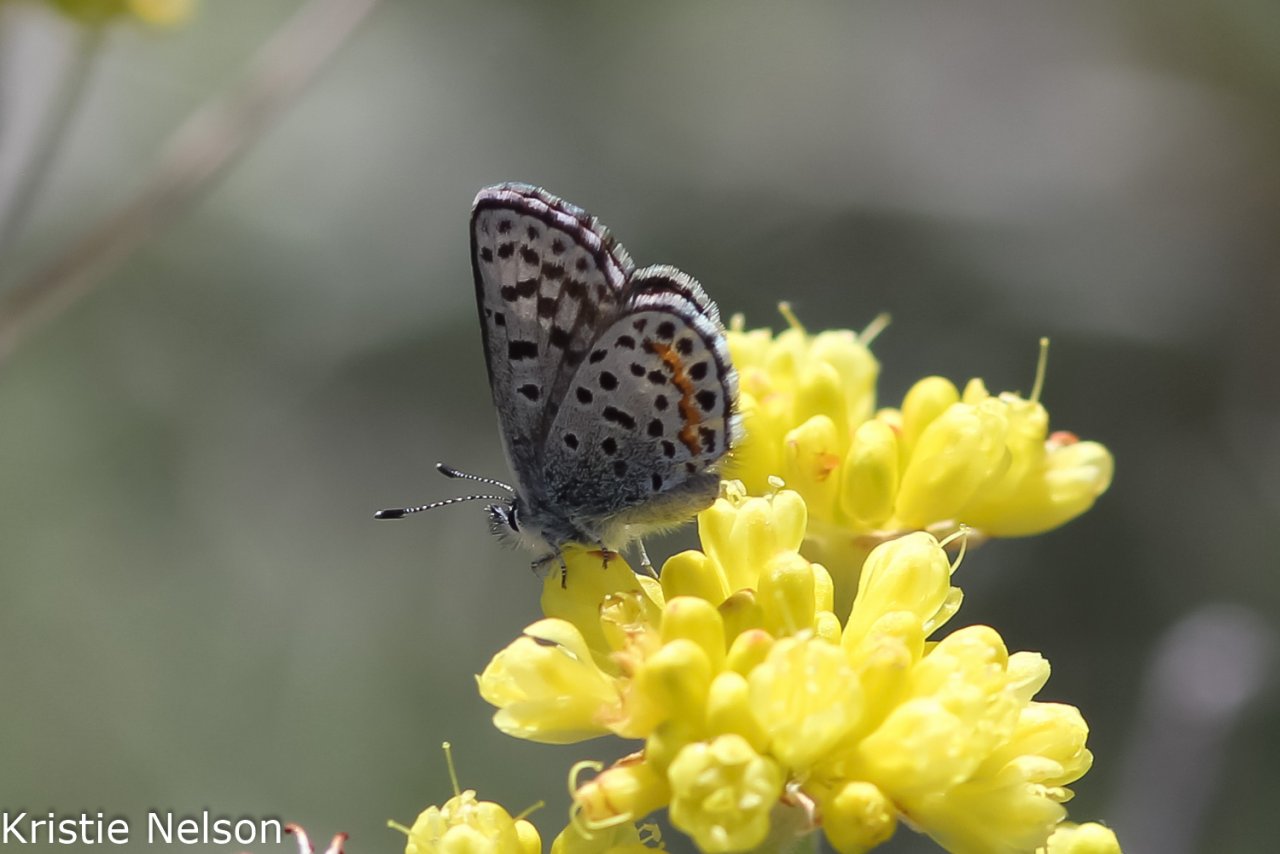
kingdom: Animalia
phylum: Arthropoda
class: Insecta
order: Lepidoptera
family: Lycaenidae
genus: Euphilotes
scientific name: Euphilotes
